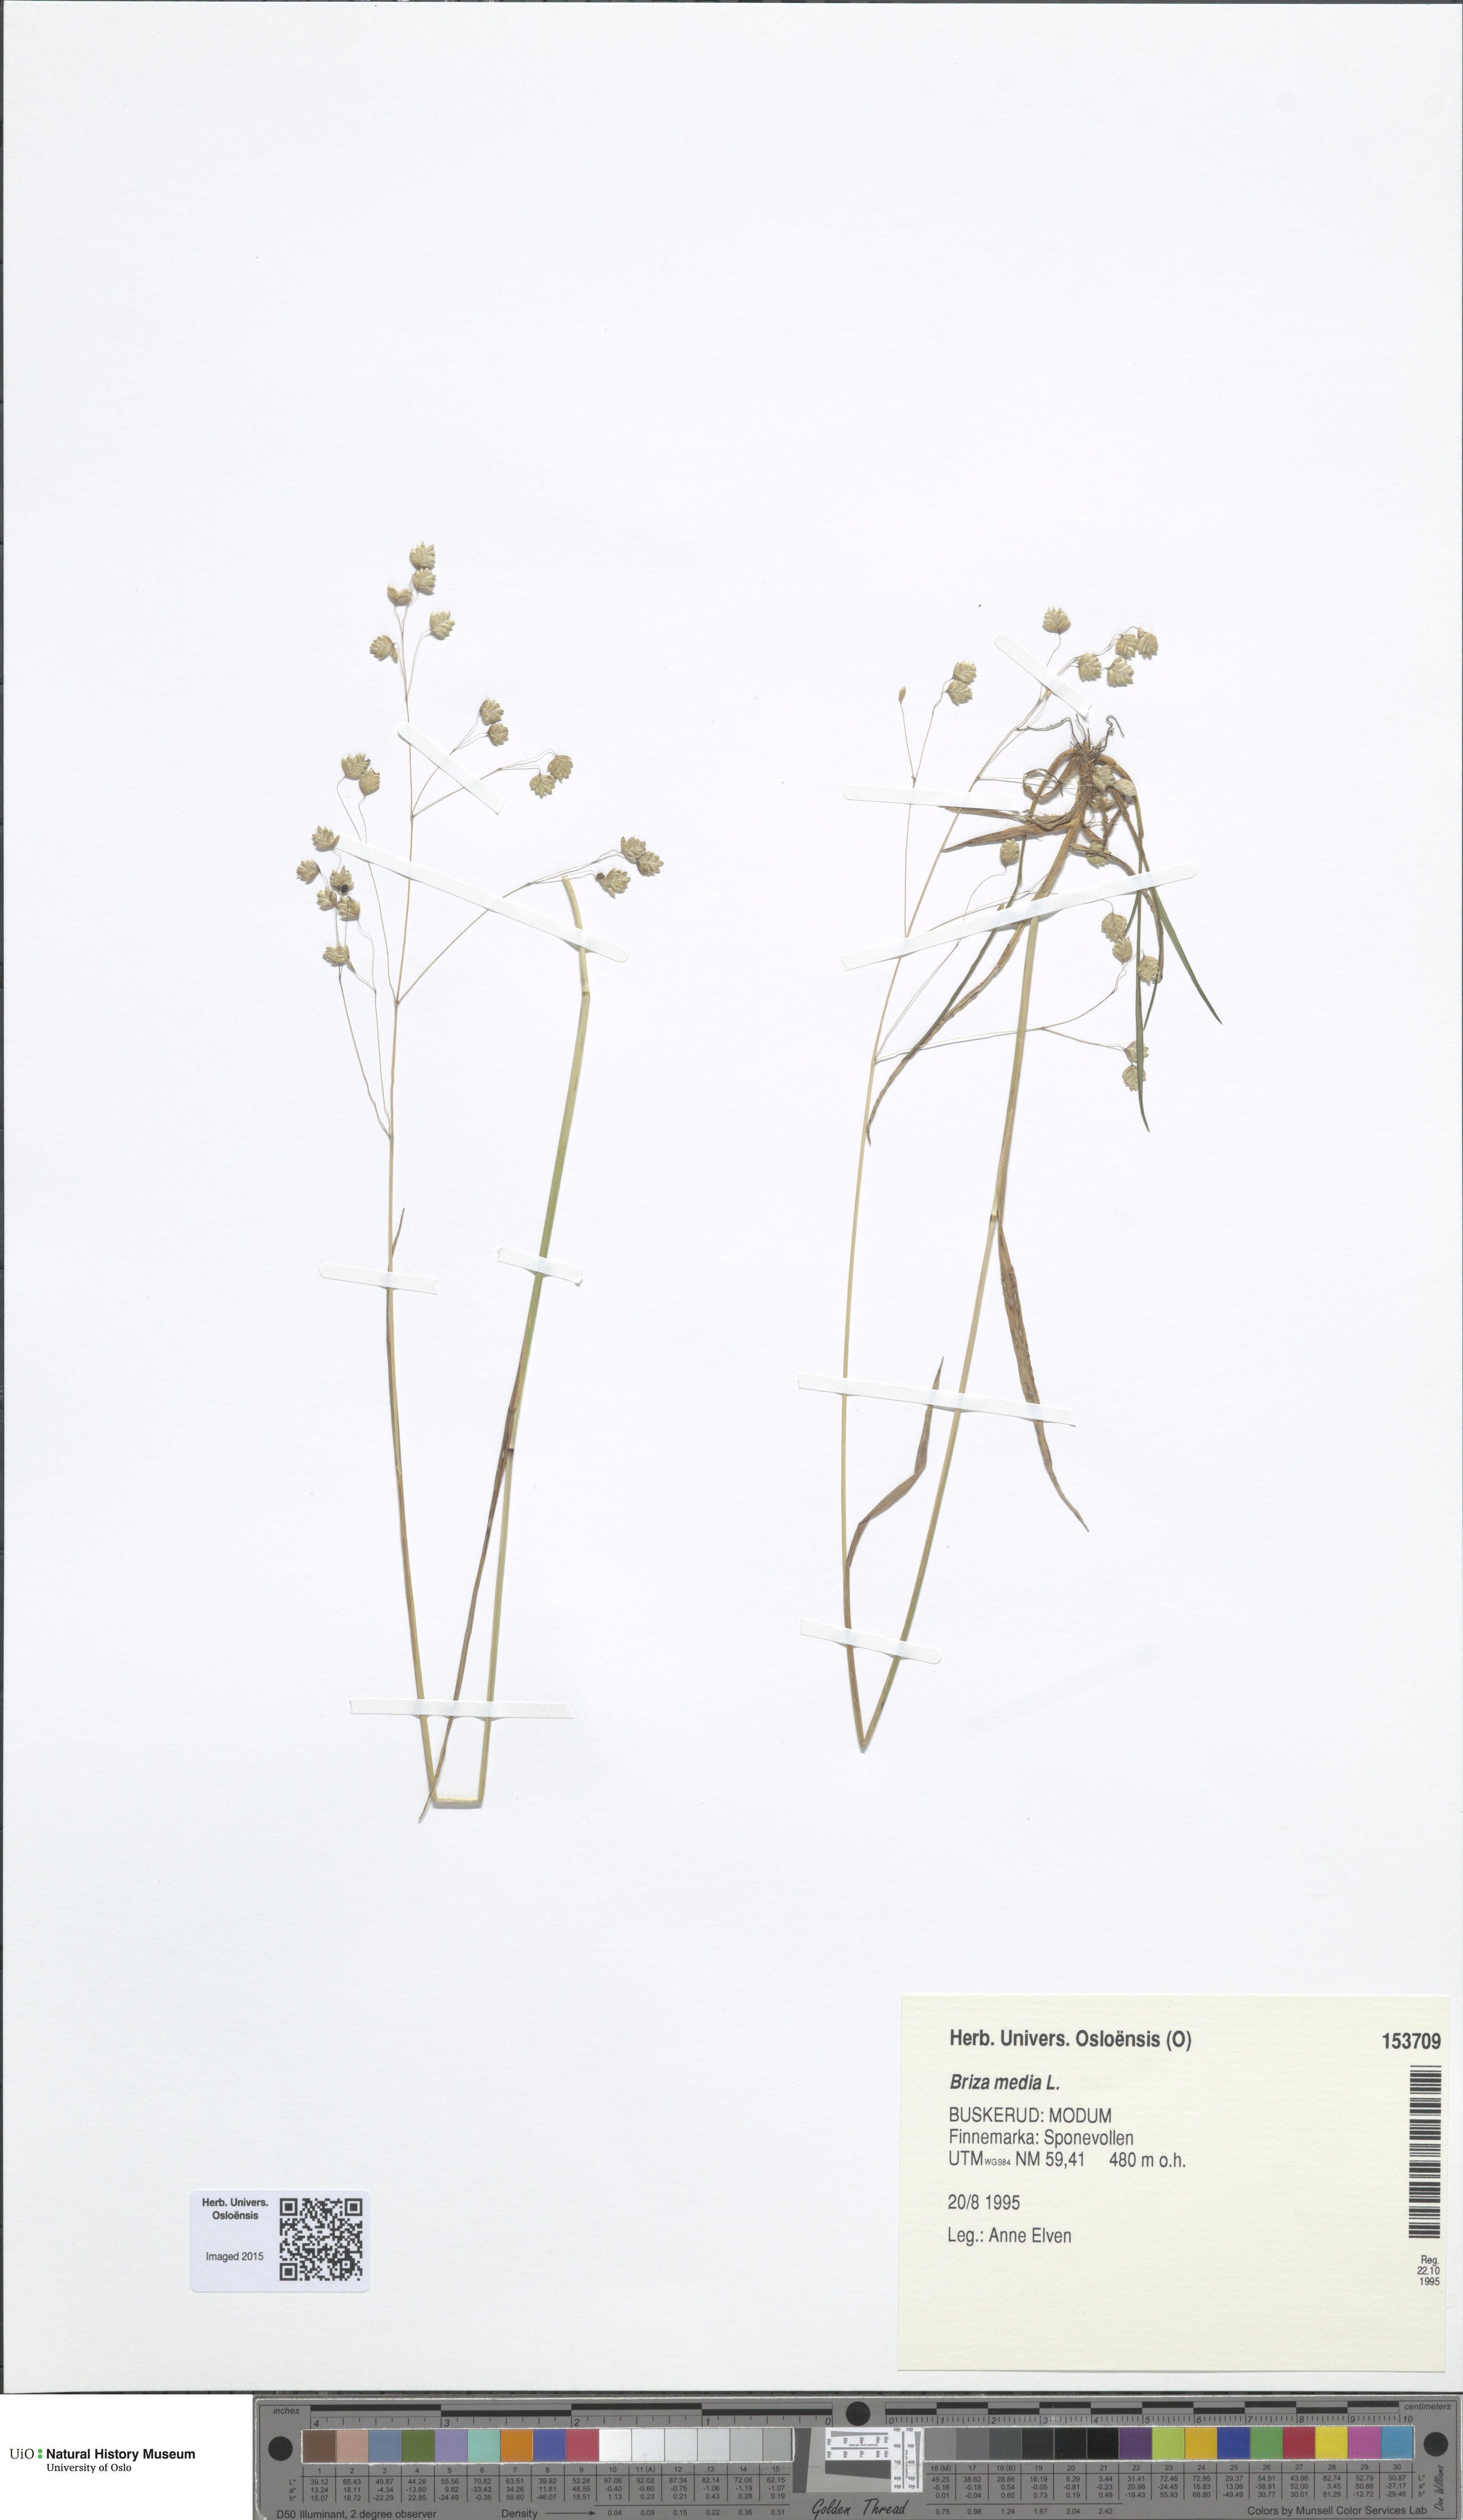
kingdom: Plantae
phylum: Tracheophyta
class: Liliopsida
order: Poales
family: Poaceae
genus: Briza
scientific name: Briza media
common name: Quaking grass
